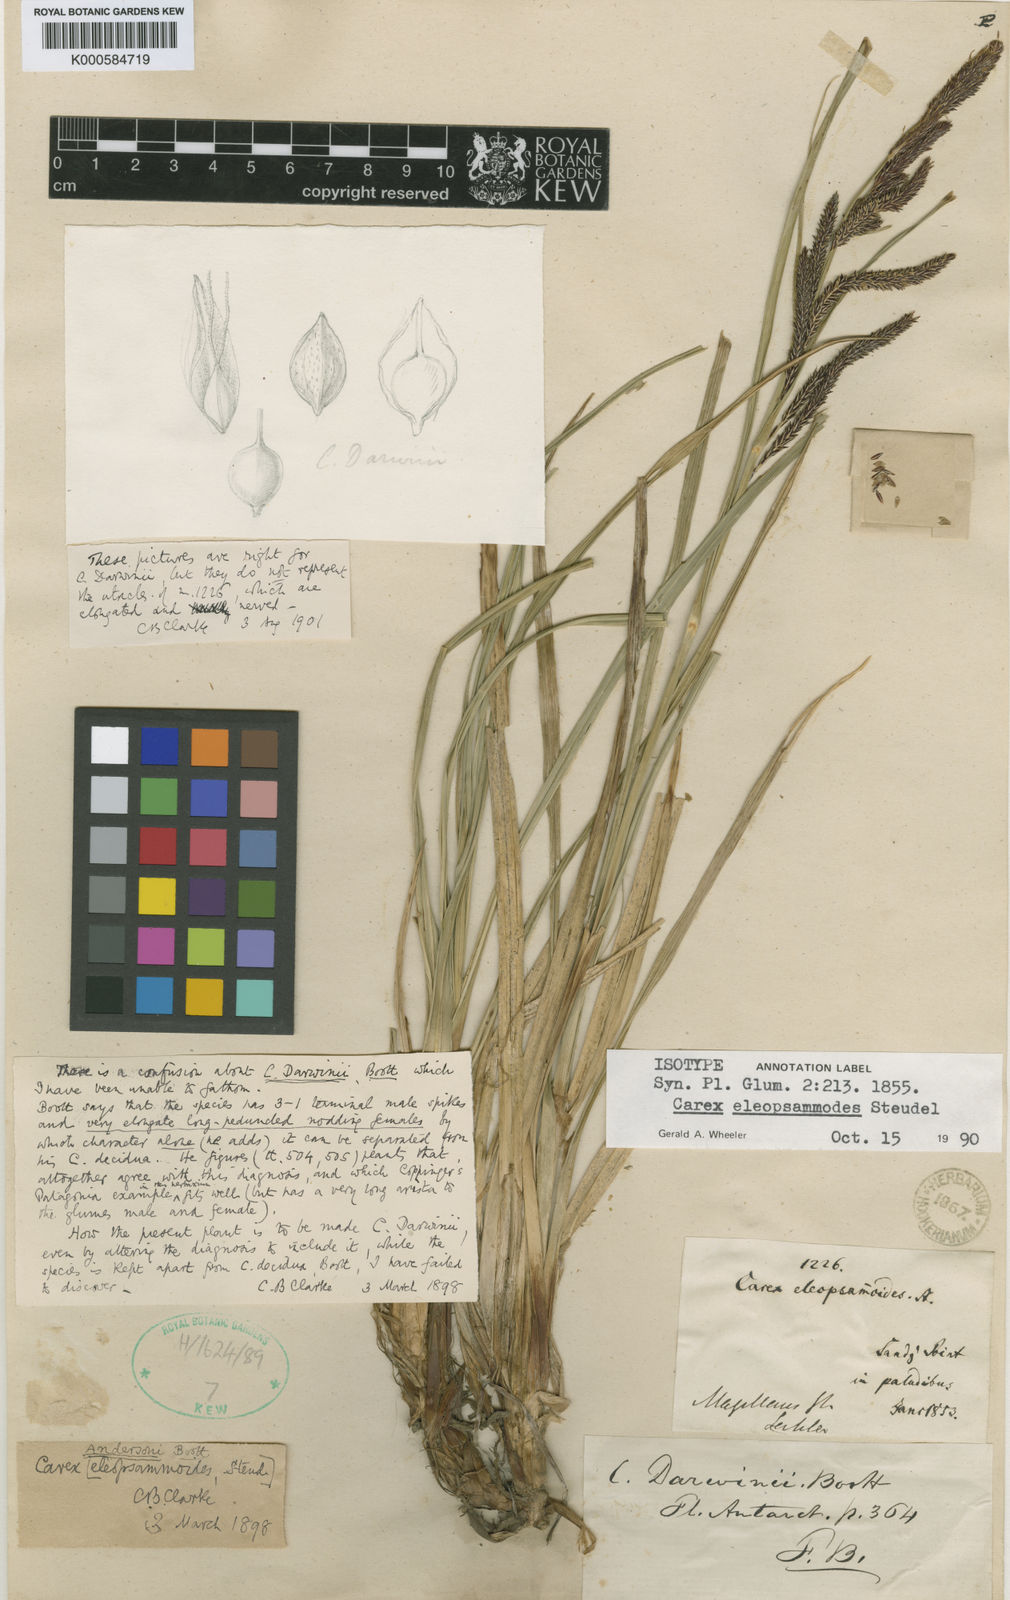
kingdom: Plantae
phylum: Tracheophyta
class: Liliopsida
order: Poales
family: Cyperaceae
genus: Carex
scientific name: Carex andersonii
